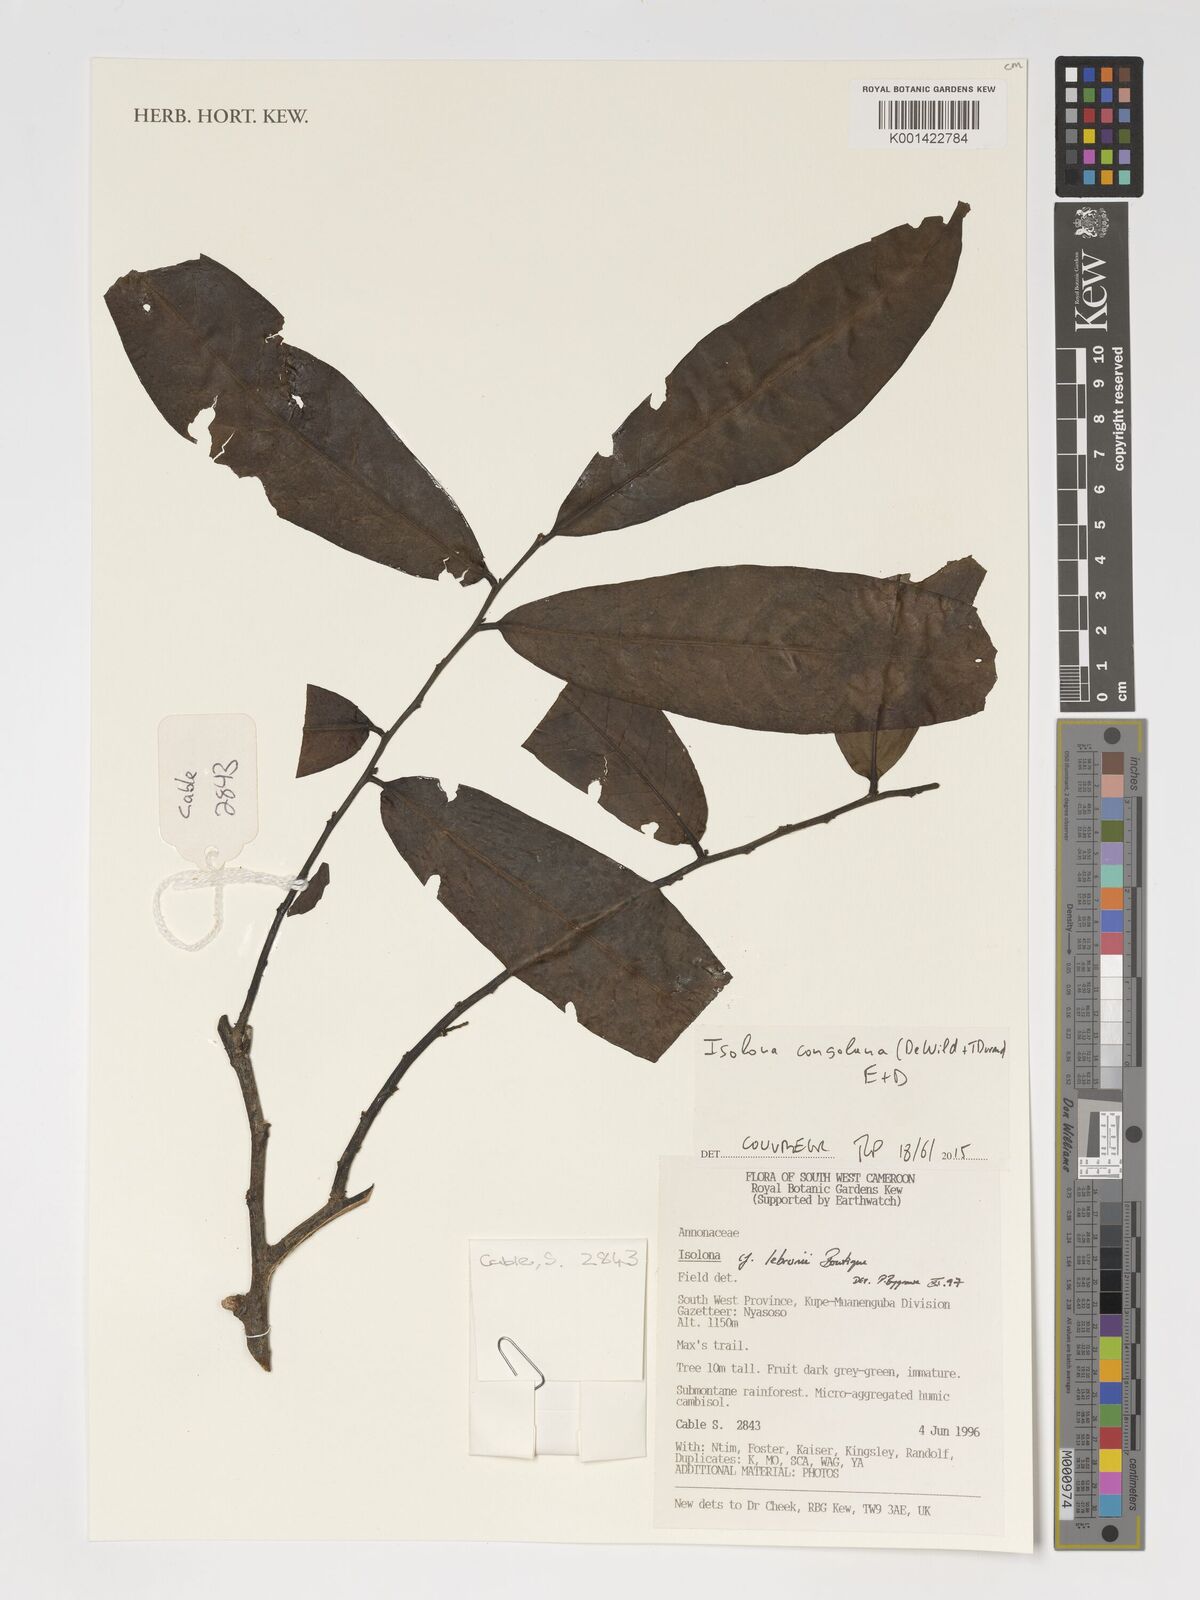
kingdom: Plantae
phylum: Tracheophyta
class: Magnoliopsida
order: Magnoliales
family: Annonaceae
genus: Isolona
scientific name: Isolona congolana
